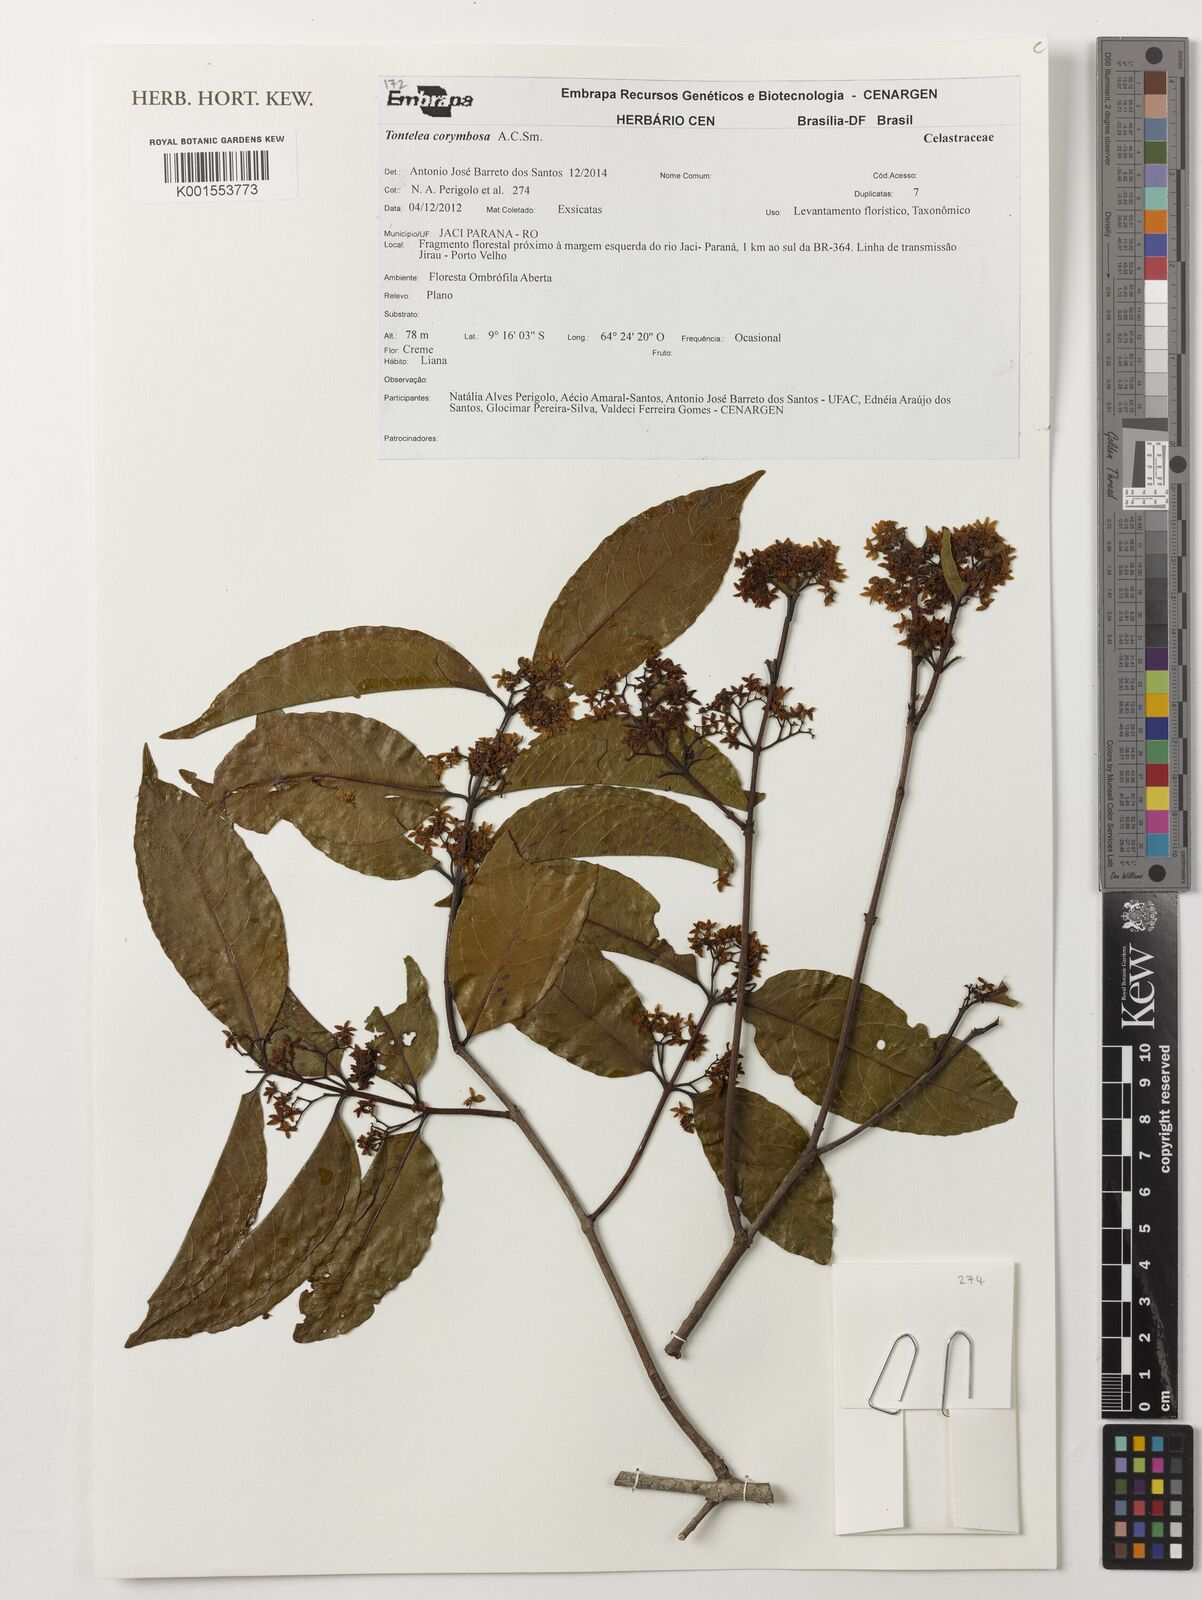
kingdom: Plantae
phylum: Tracheophyta
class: Magnoliopsida
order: Celastrales
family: Celastraceae
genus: Tontelea
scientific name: Tontelea corymbosa
